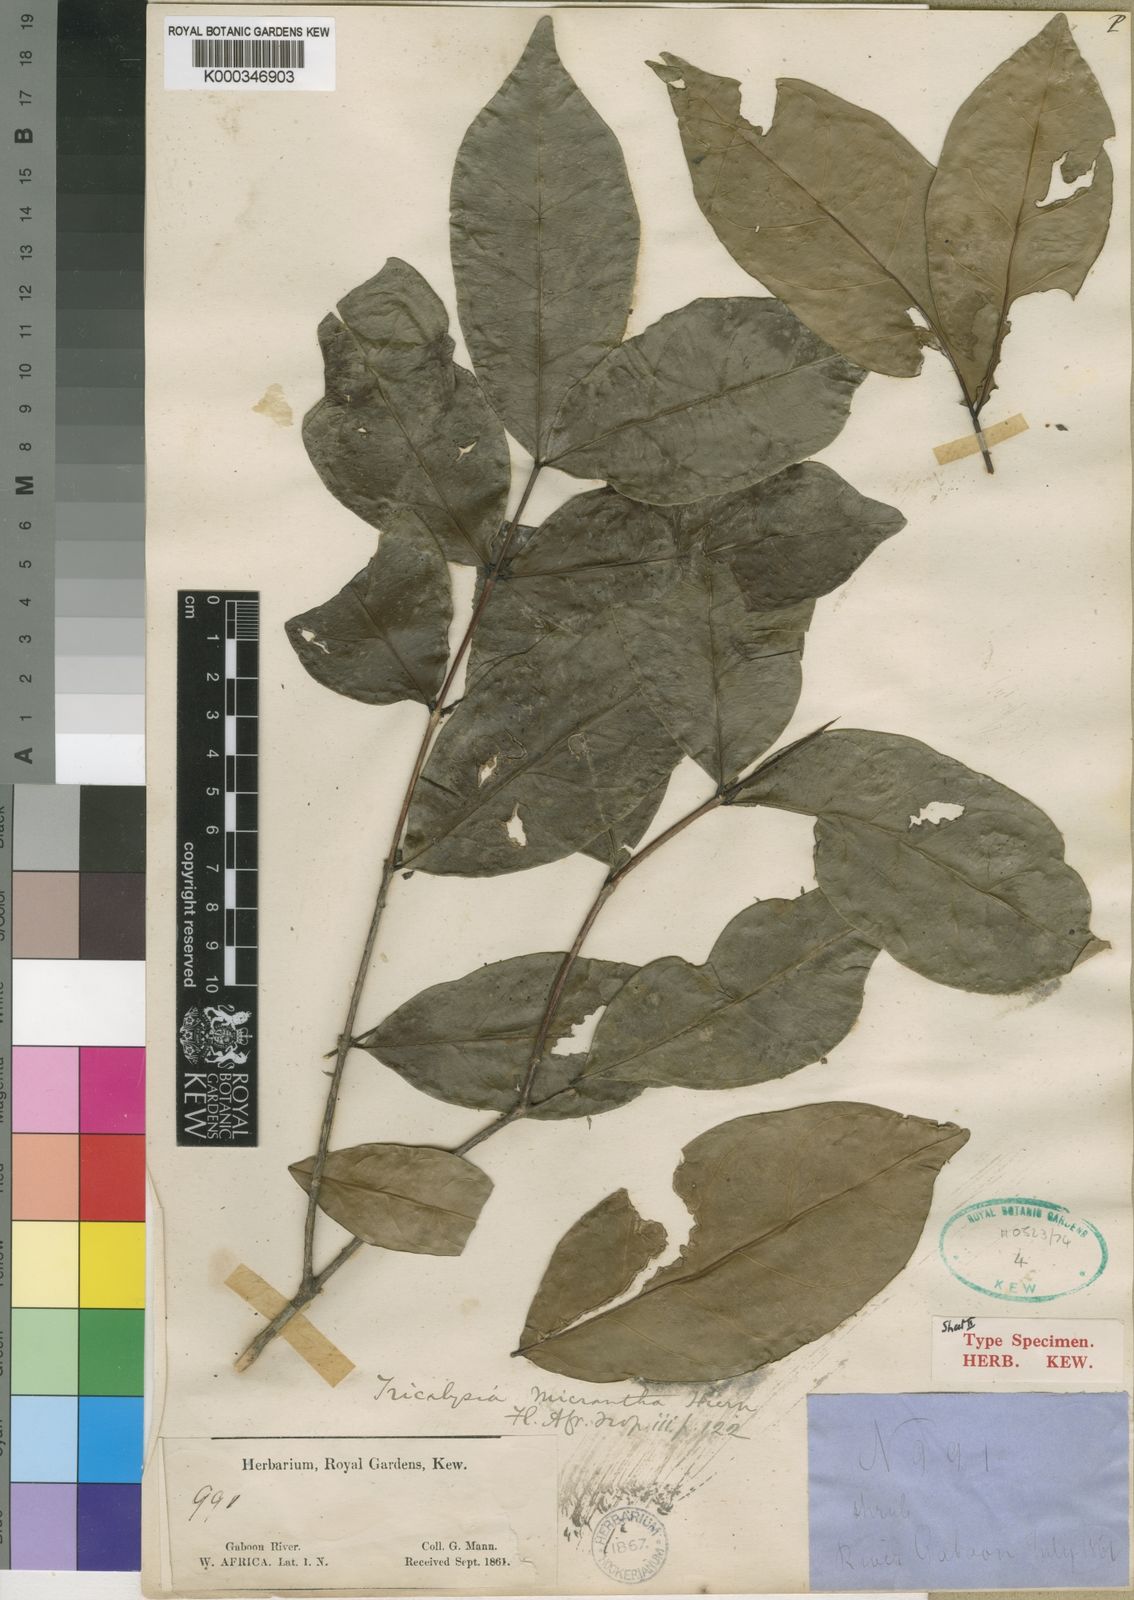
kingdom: Plantae
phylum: Tracheophyta
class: Magnoliopsida
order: Gentianales
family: Rubiaceae
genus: Tricalysia
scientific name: Tricalysia micrantha
